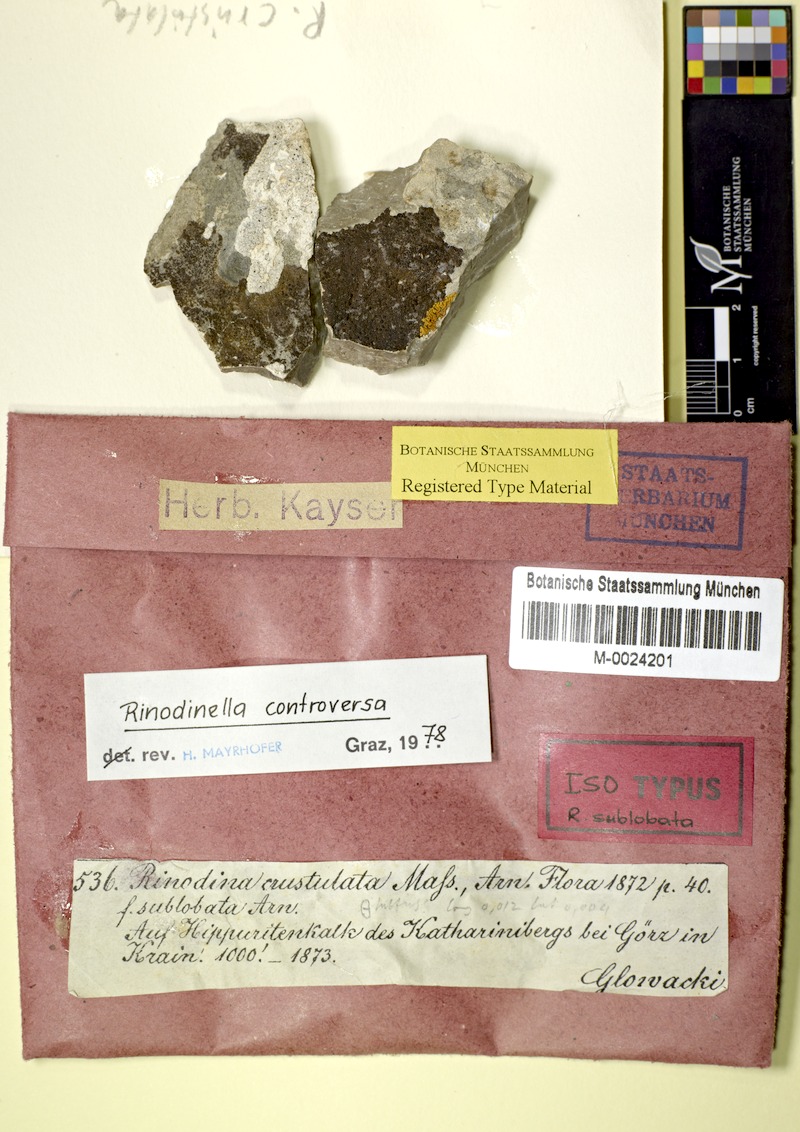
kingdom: Fungi
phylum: Ascomycota
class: Lecanoromycetes
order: Caliciales
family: Physciaceae
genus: Rinodinella
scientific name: Rinodinella controversa
